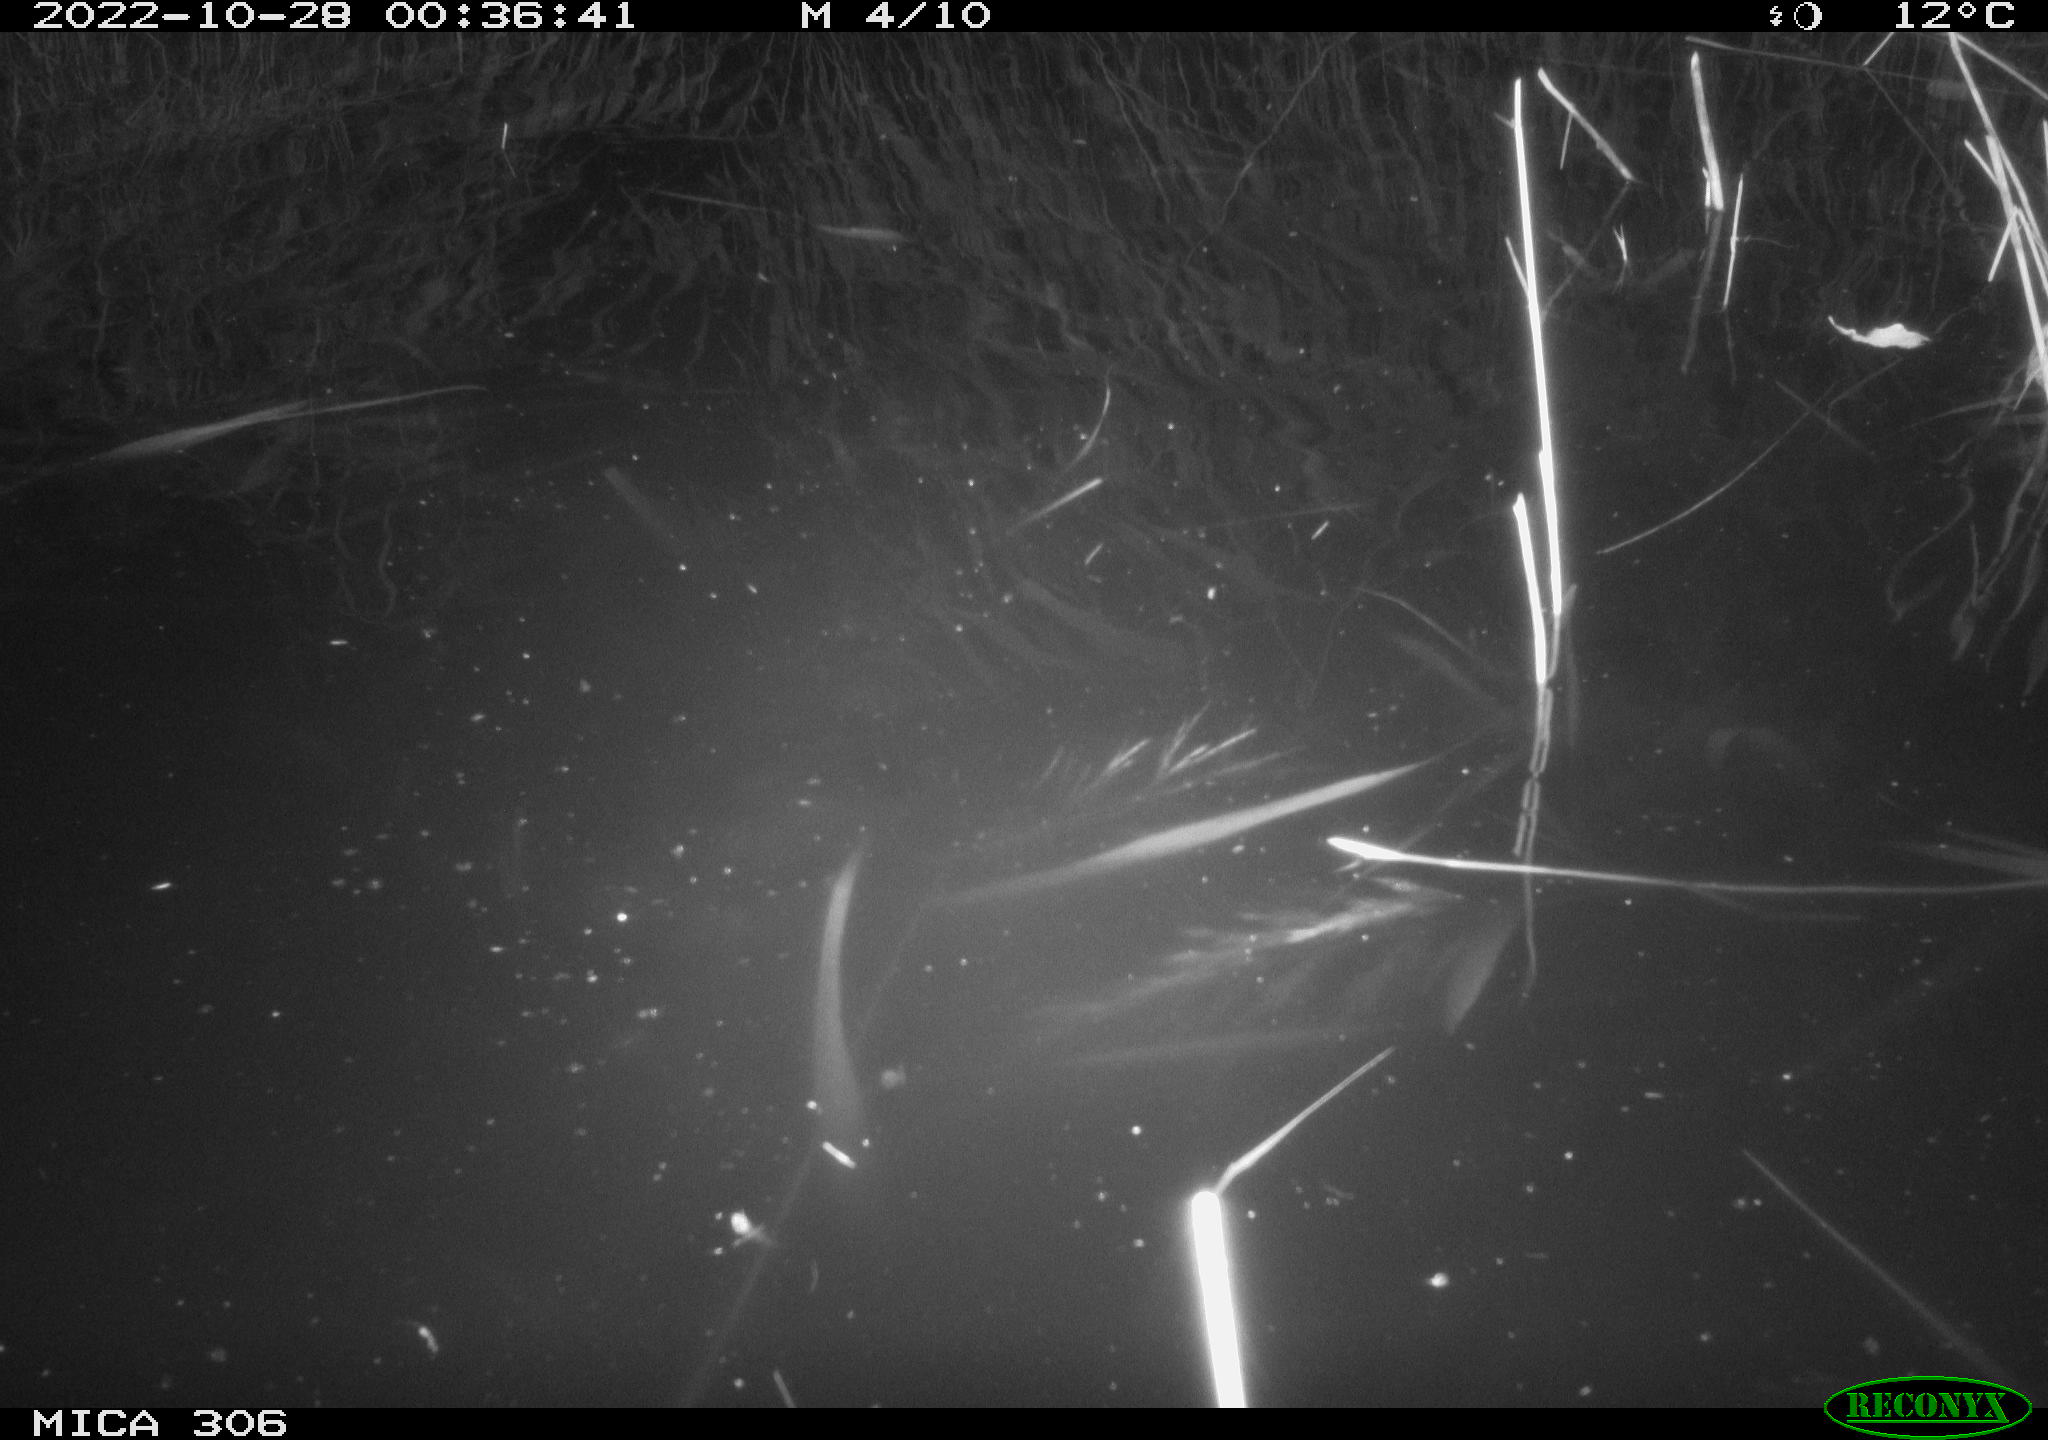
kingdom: Animalia
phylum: Chordata
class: Mammalia
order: Rodentia
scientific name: Rodentia
